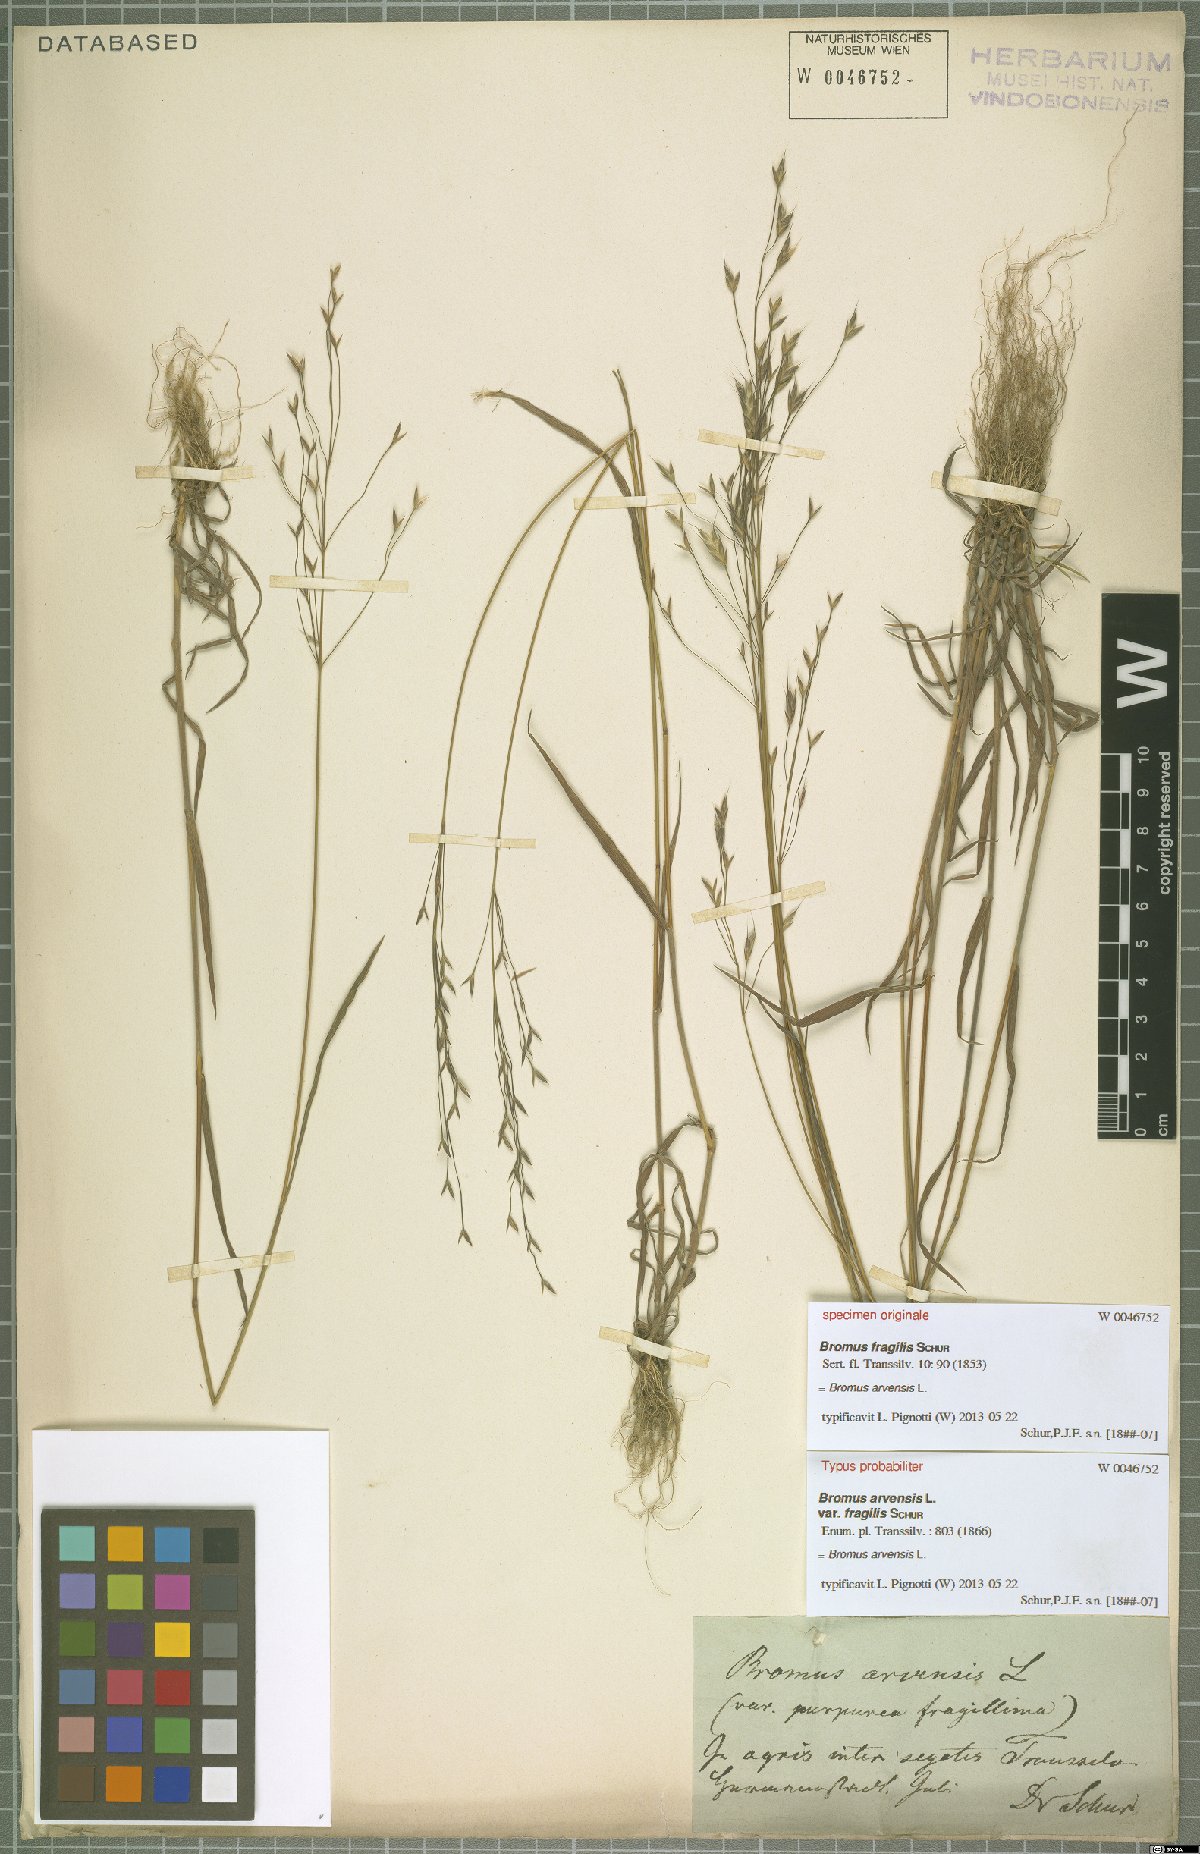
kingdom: Plantae
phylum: Tracheophyta
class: Liliopsida
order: Poales
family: Poaceae
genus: Bromus
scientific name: Bromus arvensis
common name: Field brome
